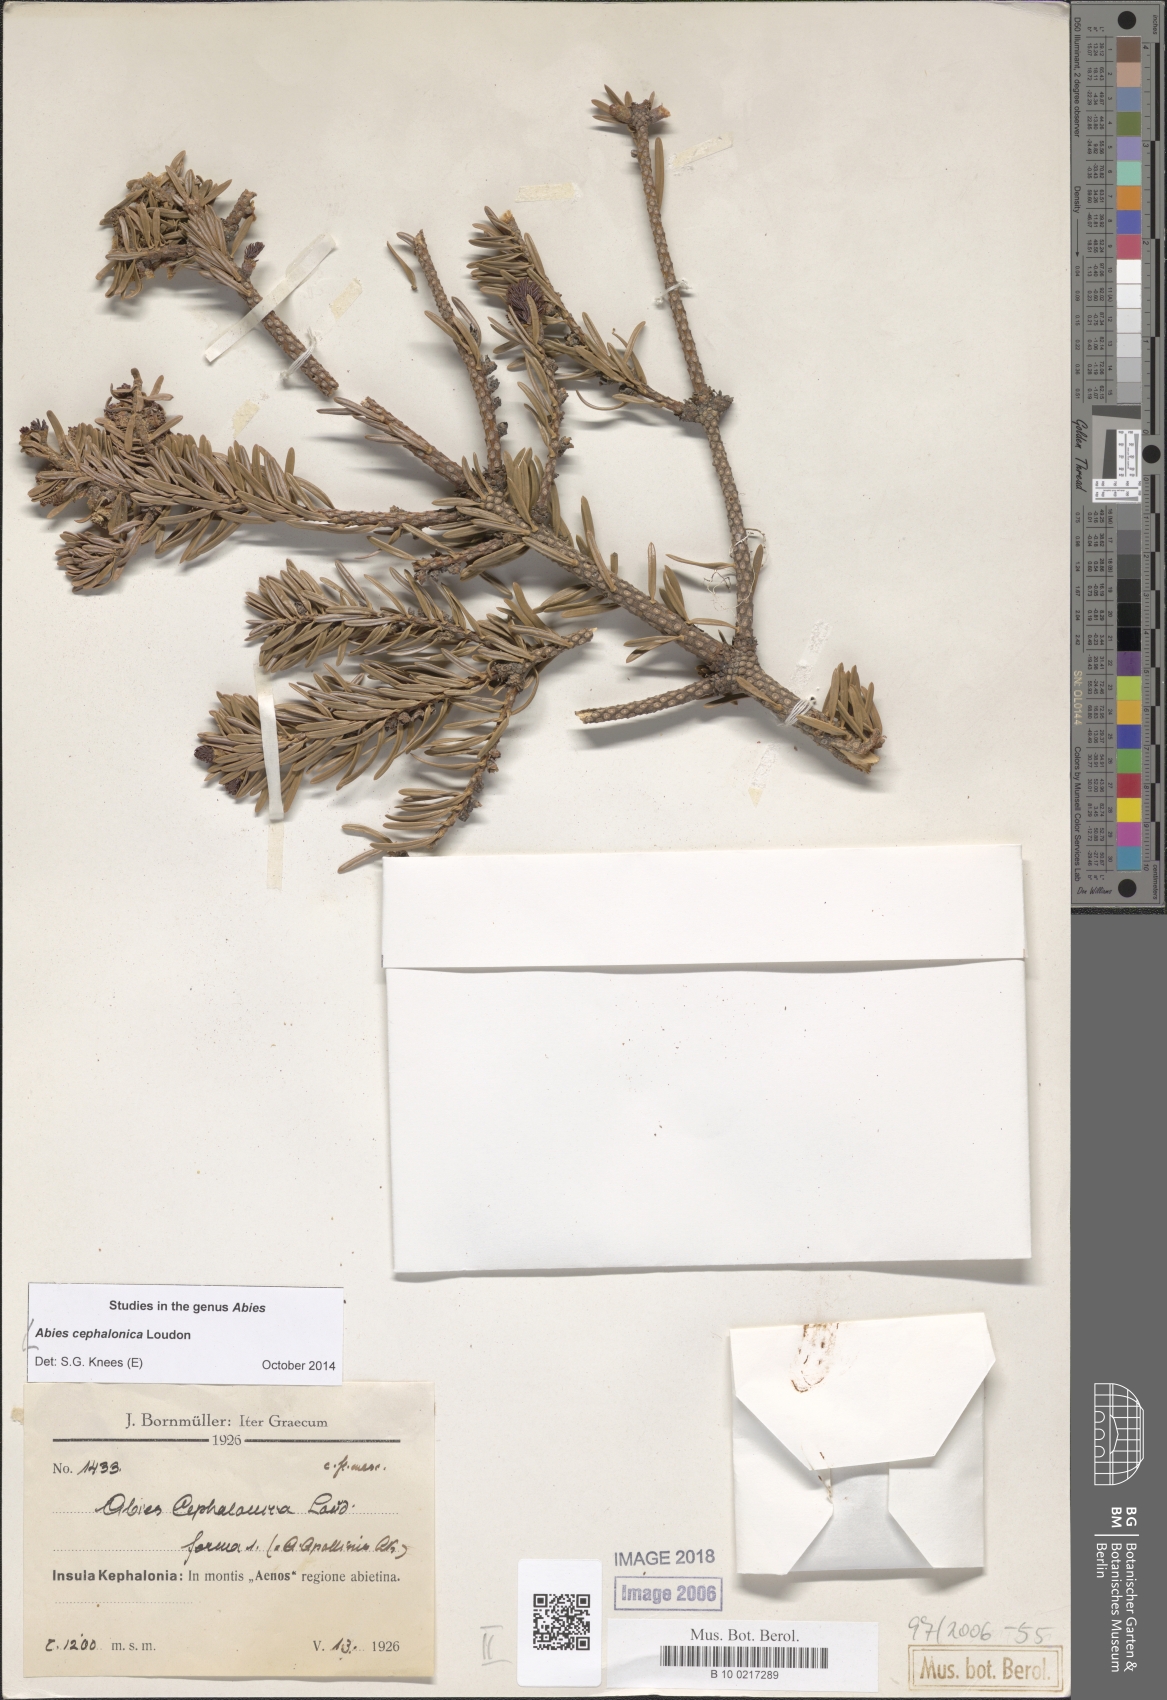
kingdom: Plantae
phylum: Tracheophyta
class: Pinopsida
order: Pinales
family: Pinaceae
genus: Abies
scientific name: Abies cephalonica
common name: Greek fir
